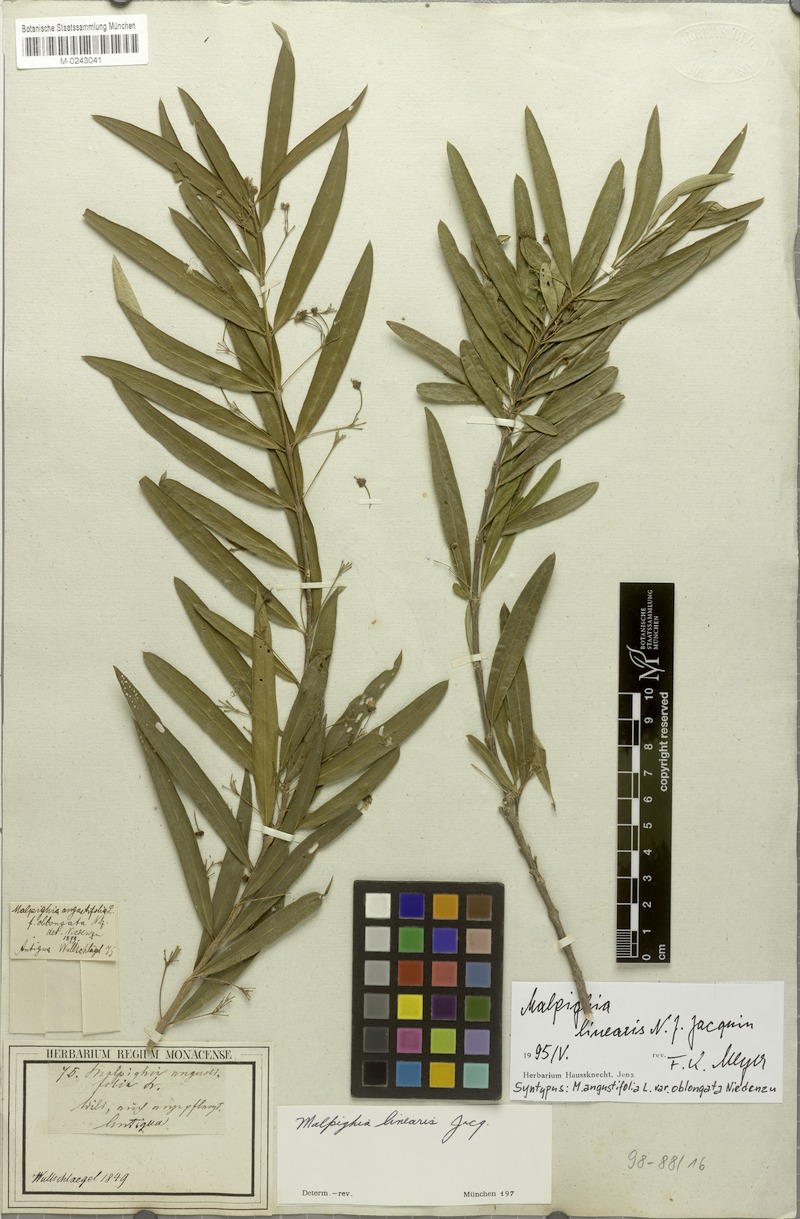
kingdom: Plantae
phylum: Tracheophyta
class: Magnoliopsida
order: Malpighiales
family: Malpighiaceae
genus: Malpighia
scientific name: Malpighia linearis
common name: Bastard cherry
